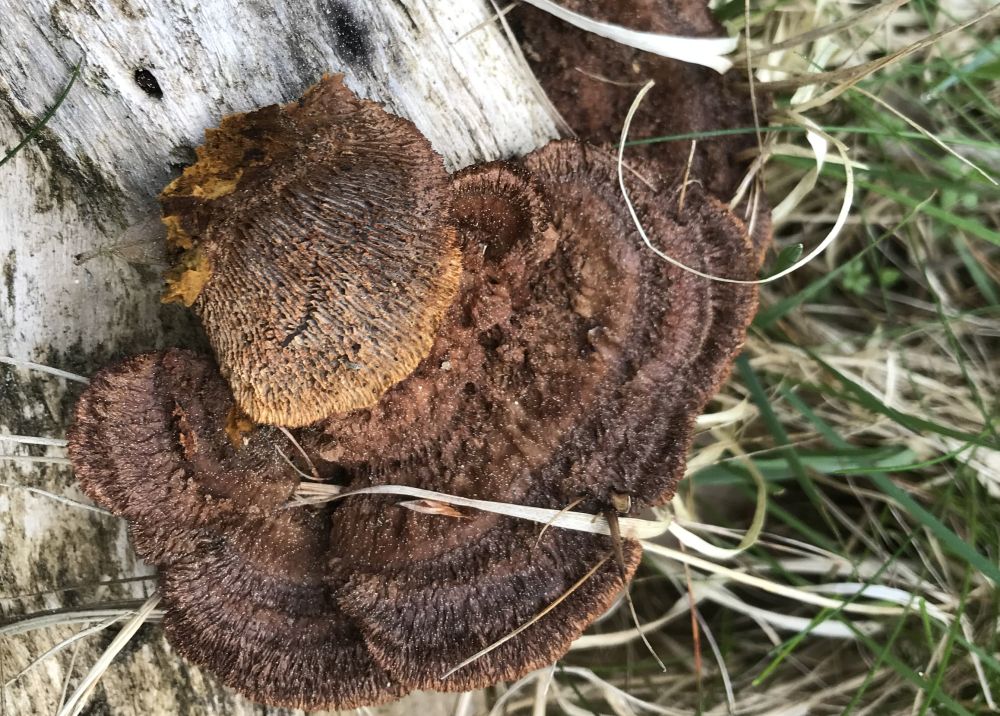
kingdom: Fungi
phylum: Basidiomycota
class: Agaricomycetes
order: Gloeophyllales
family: Gloeophyllaceae
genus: Gloeophyllum
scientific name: Gloeophyllum sepiarium
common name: fyrre-korkhat
